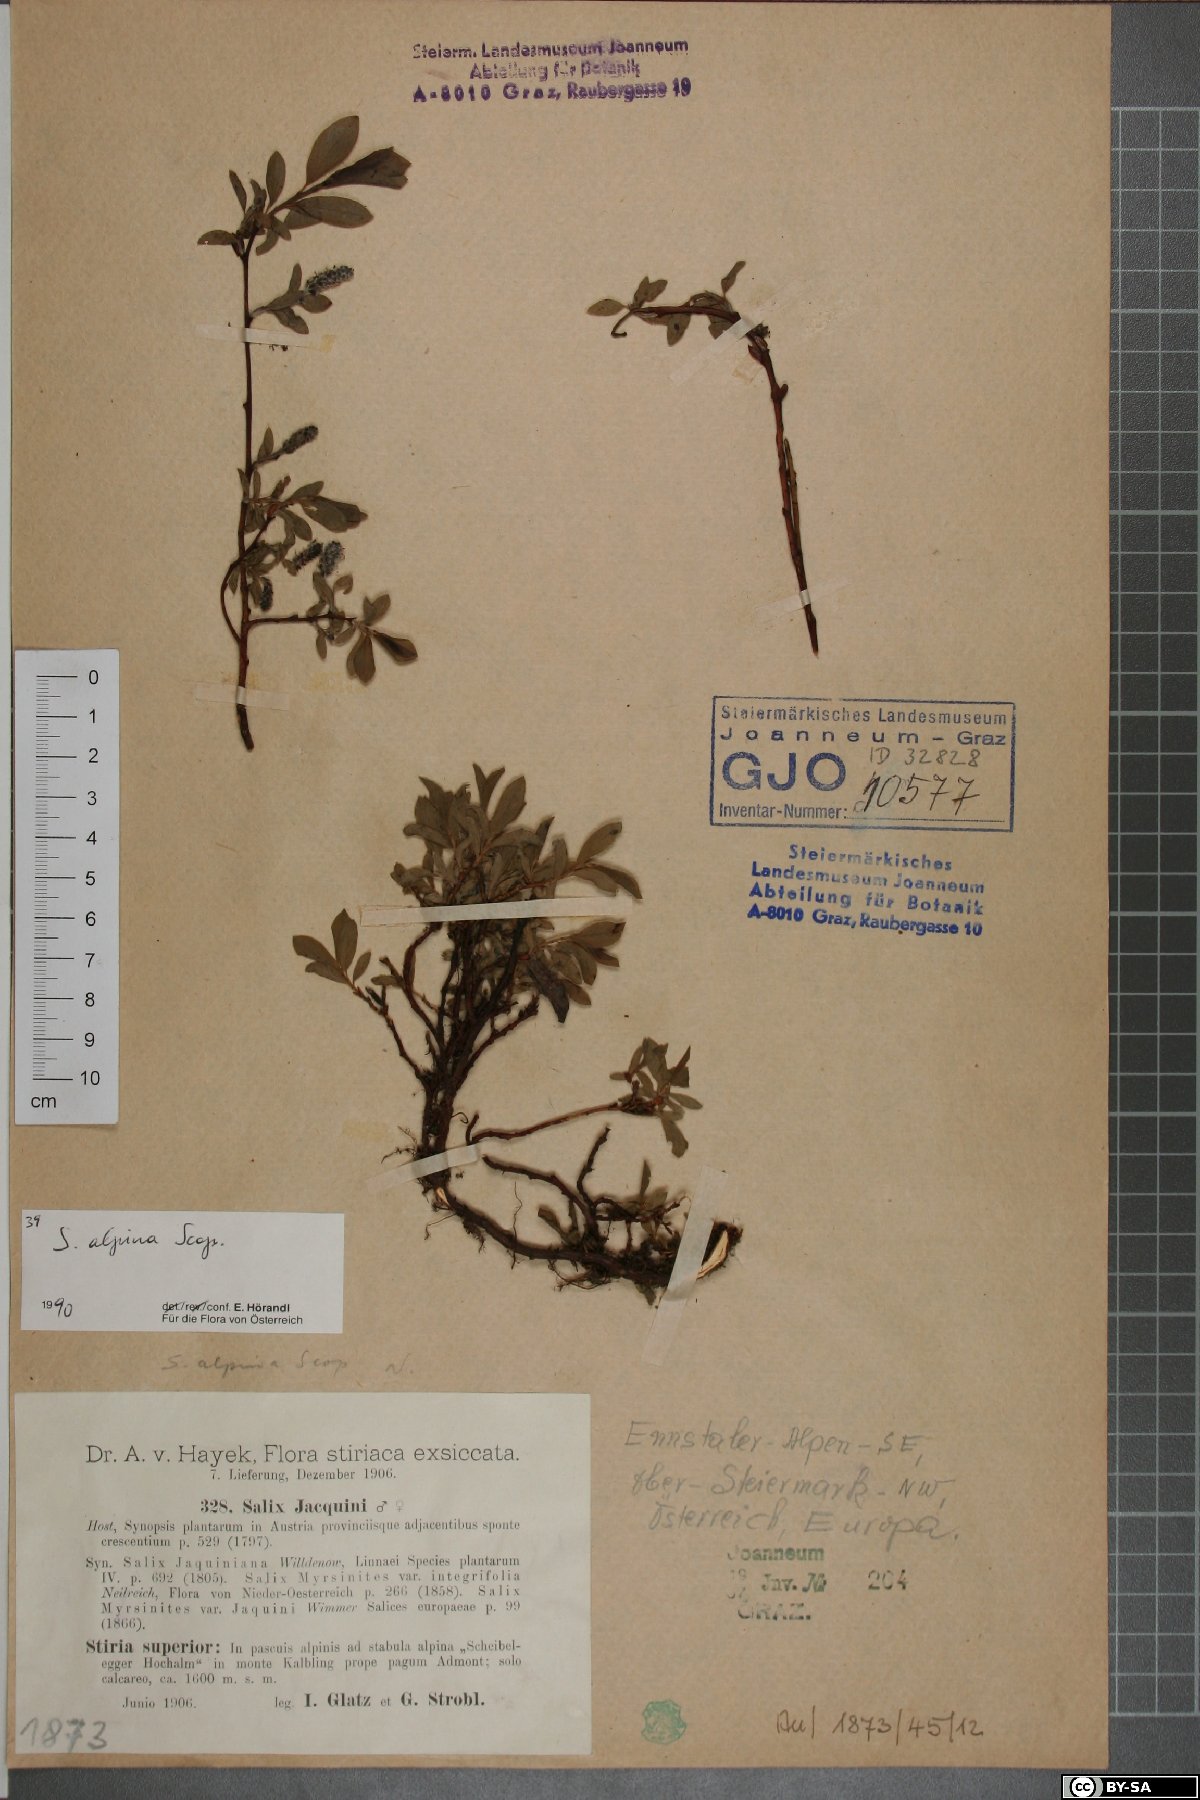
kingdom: Plantae
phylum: Tracheophyta
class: Magnoliopsida
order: Malpighiales
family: Salicaceae
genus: Salix
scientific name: Salix alpina
